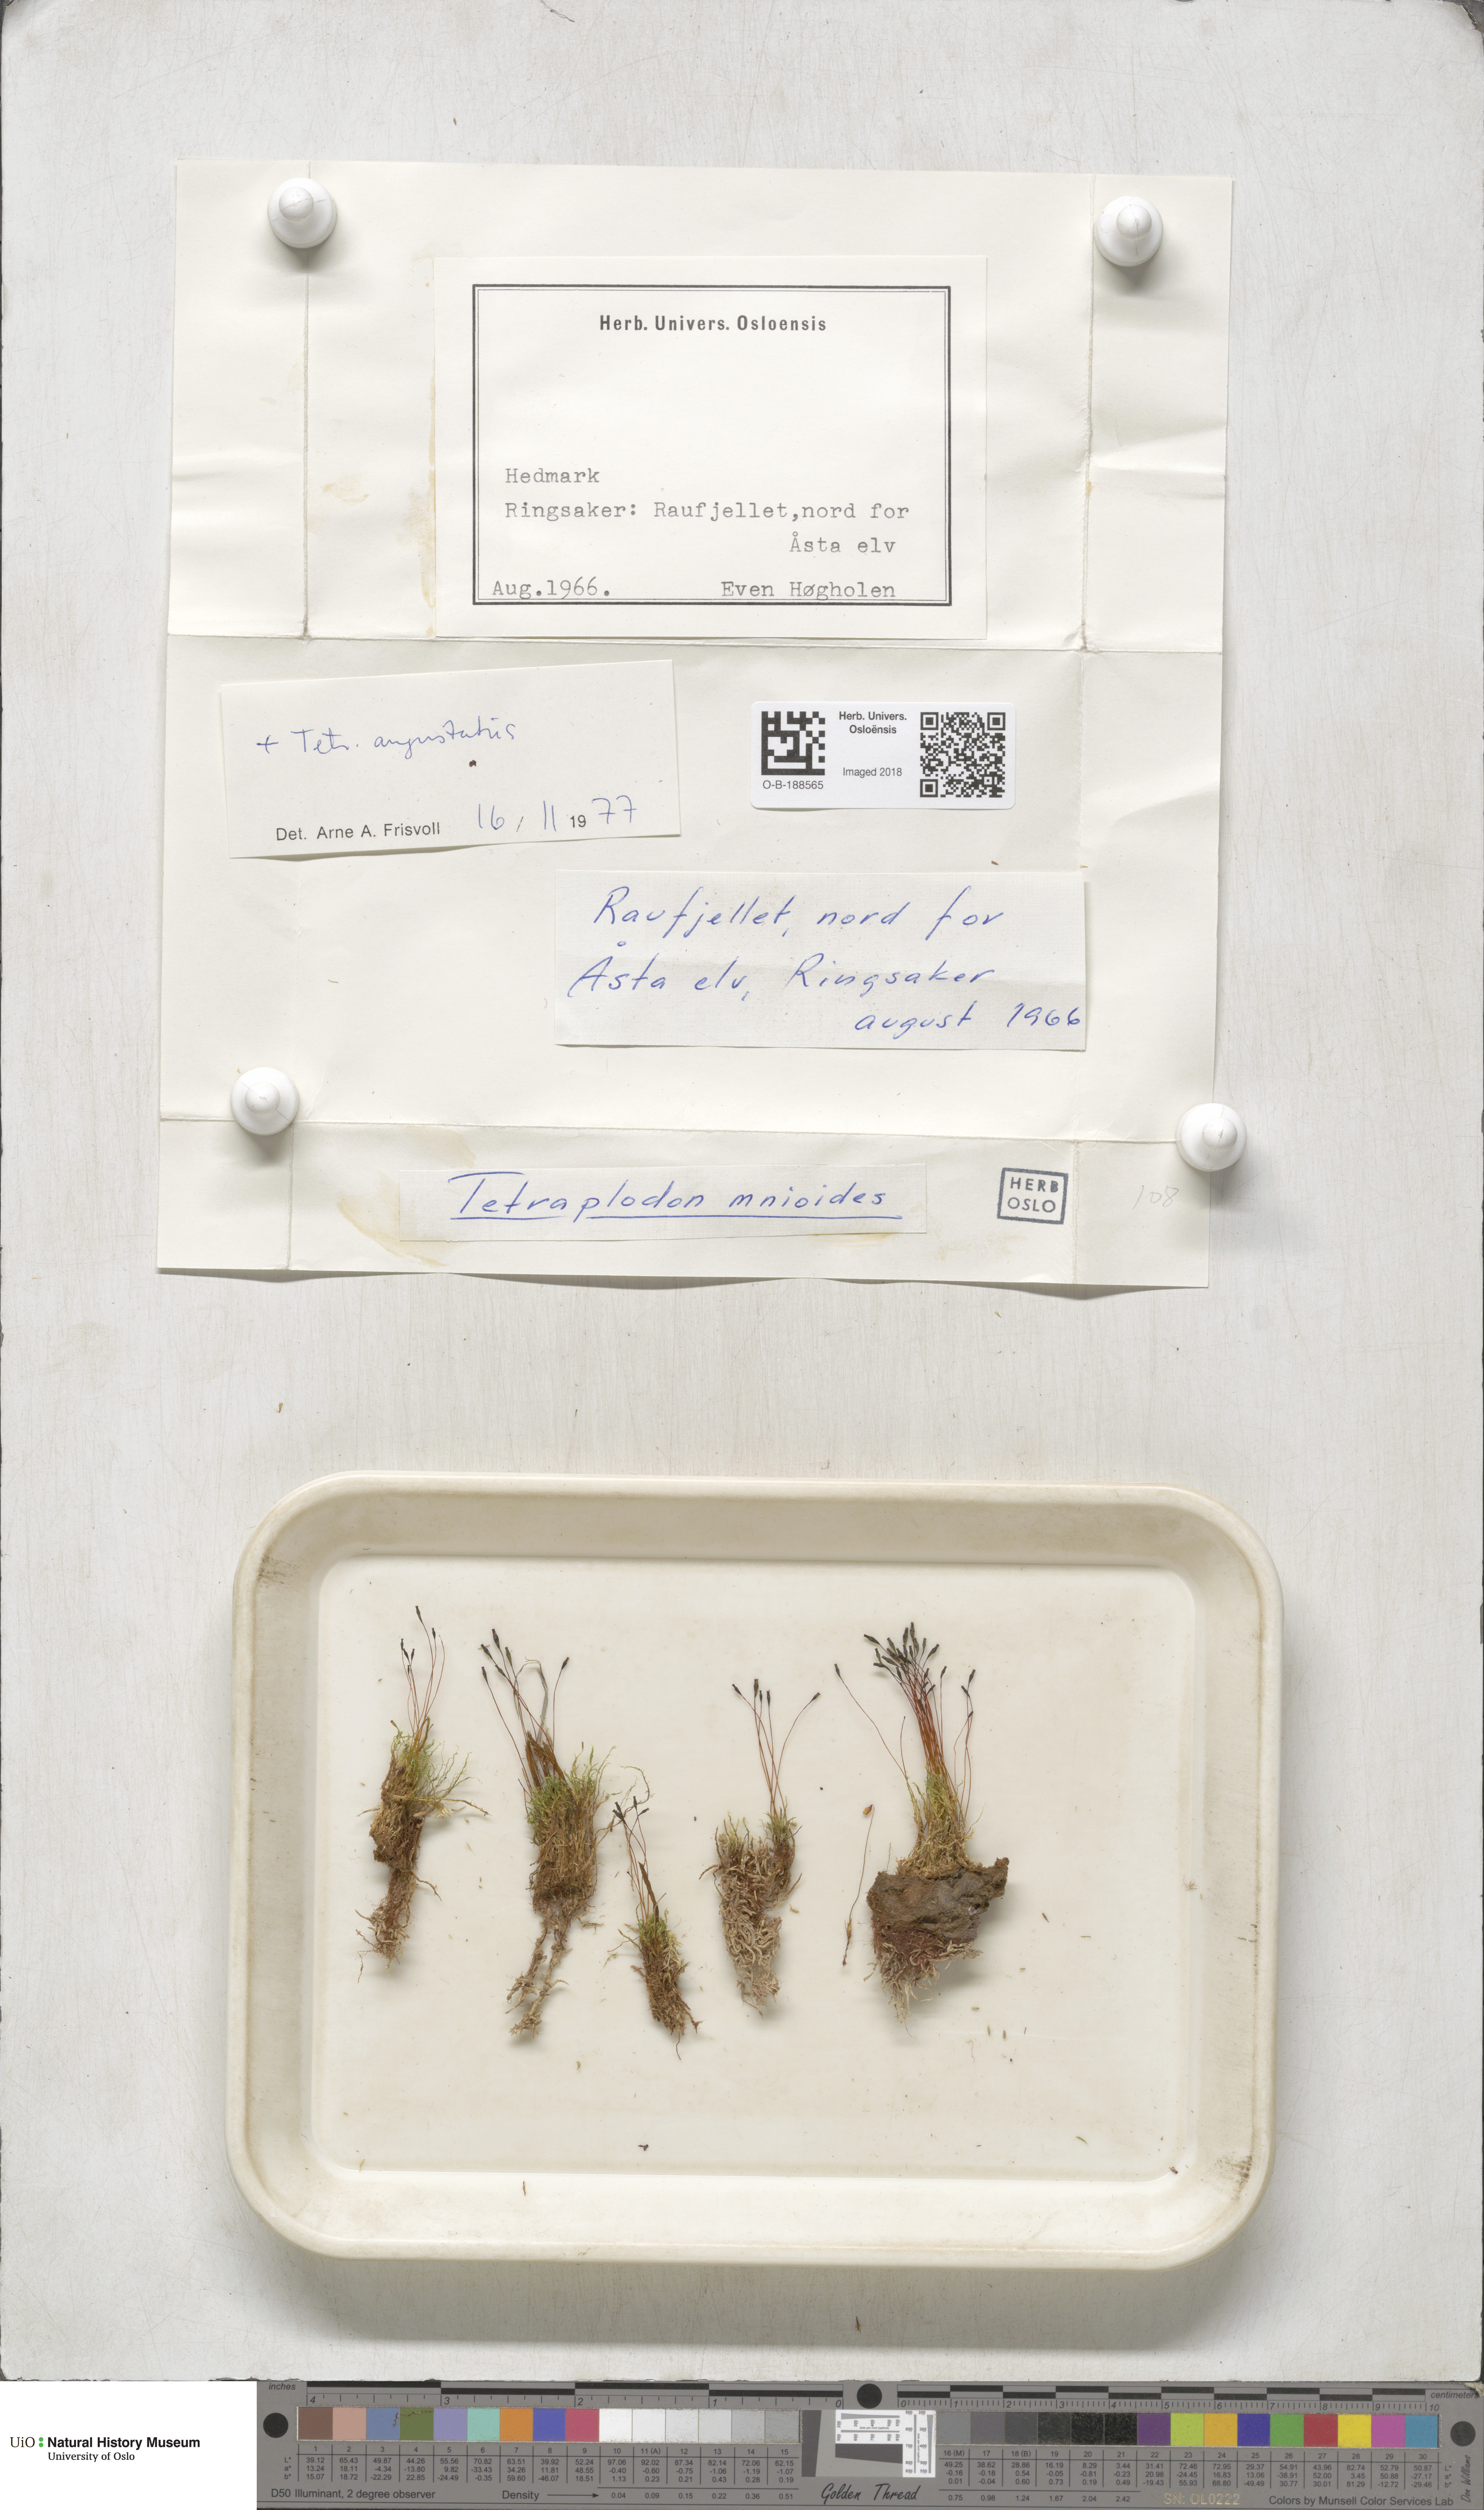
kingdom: Plantae
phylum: Bryophyta
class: Bryopsida
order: Splachnales
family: Splachnaceae
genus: Tetraplodon
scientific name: Tetraplodon mnioides
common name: Entire-leaved nitrogen moss
